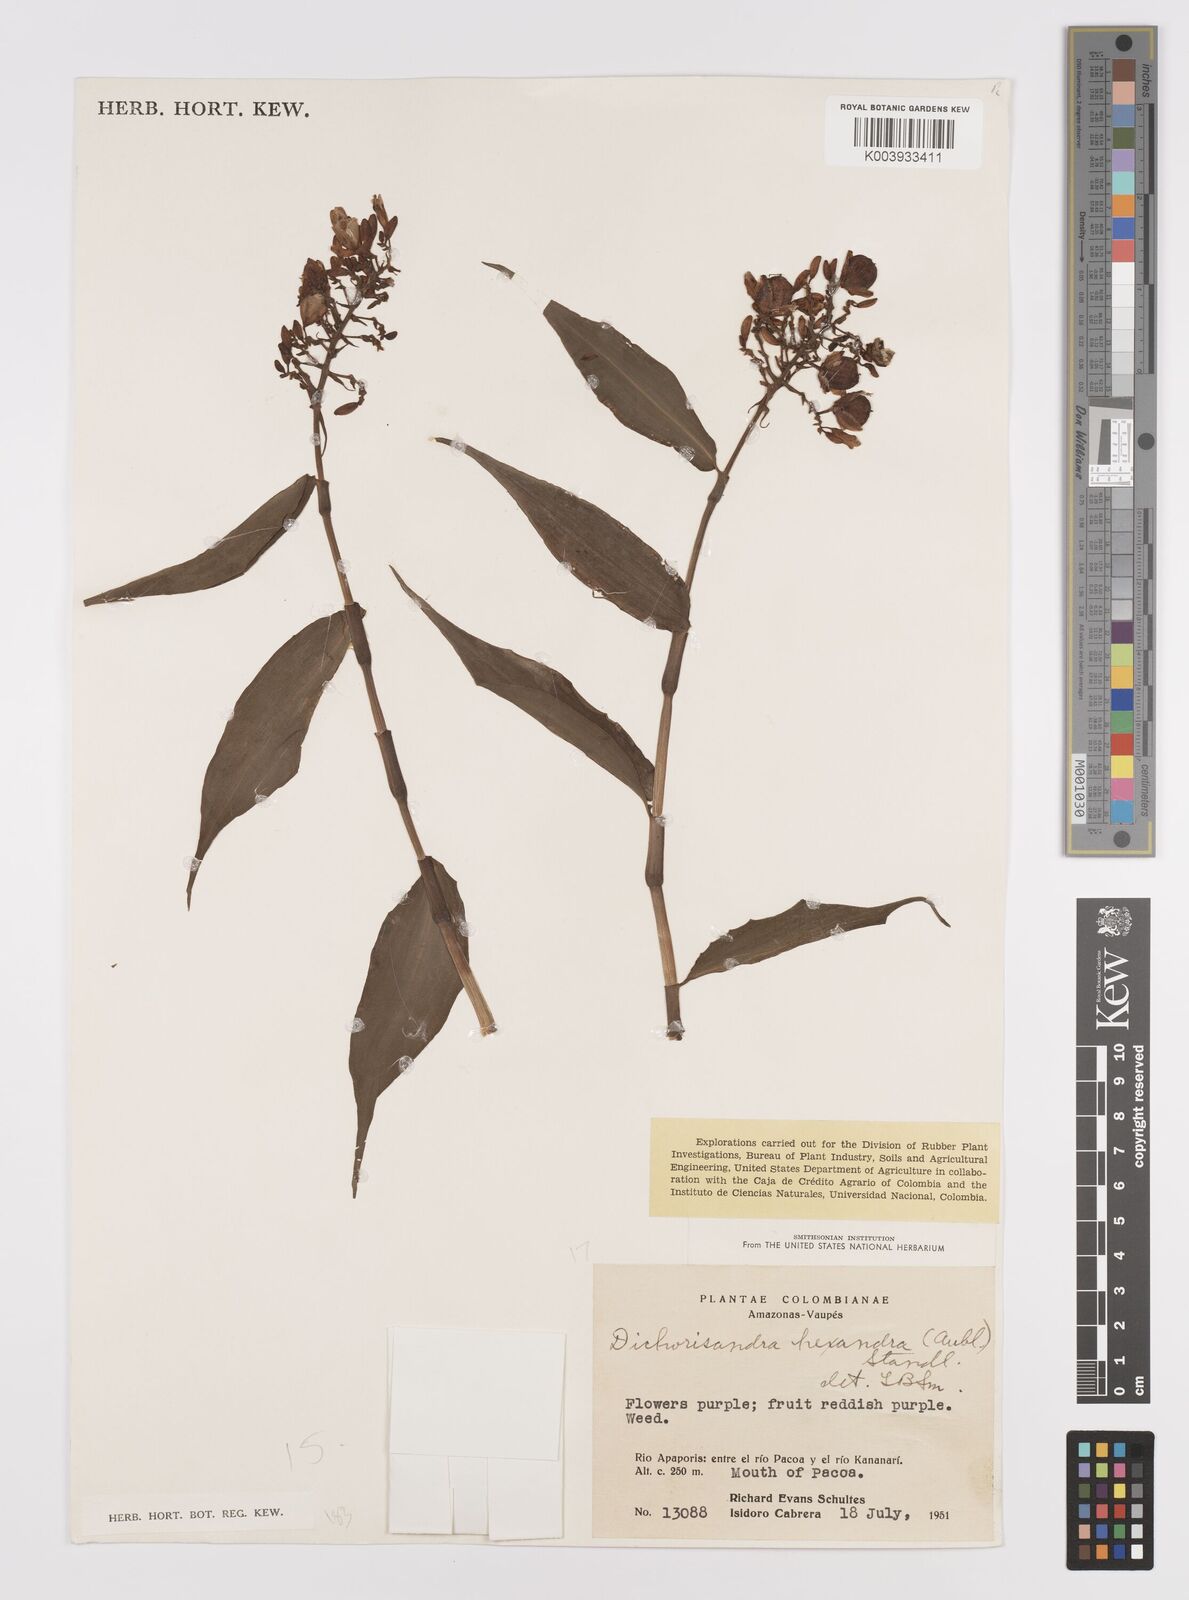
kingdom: Plantae
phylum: Tracheophyta
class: Liliopsida
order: Commelinales
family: Commelinaceae
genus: Dichorisandra
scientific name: Dichorisandra hexandra
